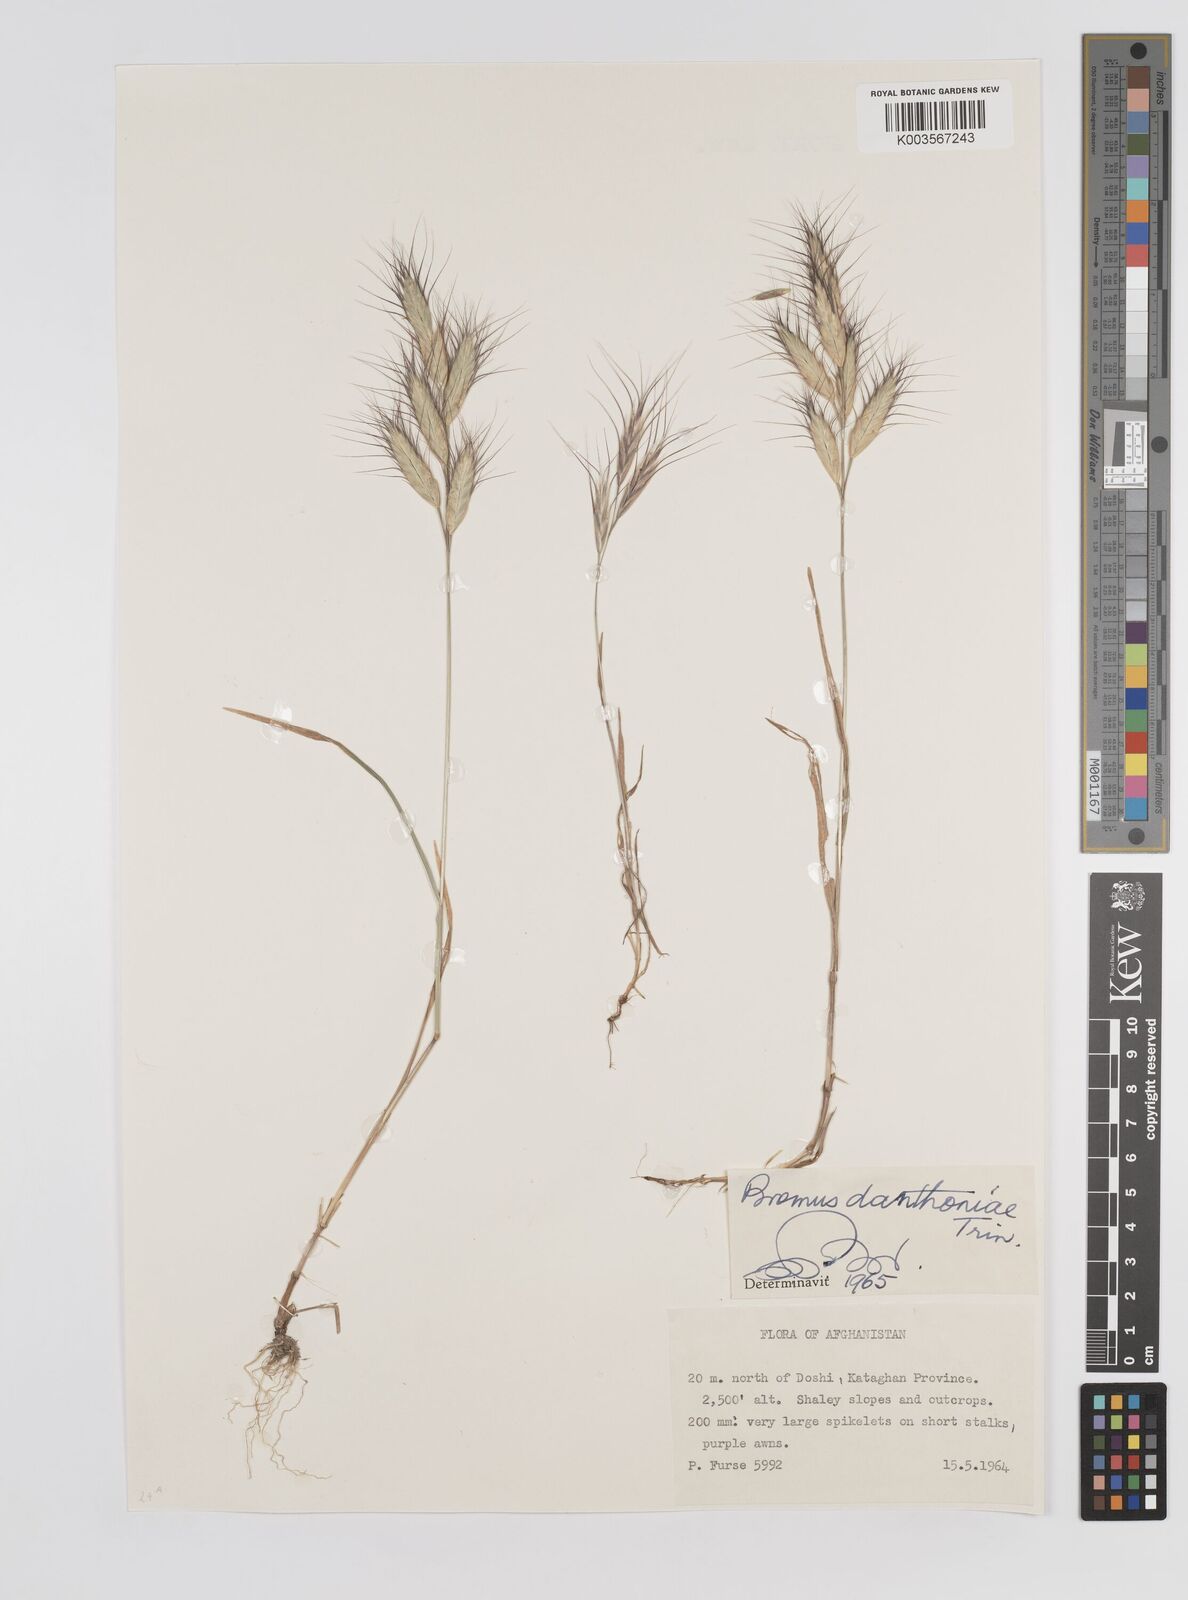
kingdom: Plantae
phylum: Tracheophyta
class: Liliopsida
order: Poales
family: Poaceae
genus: Bromus
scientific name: Bromus danthoniae
